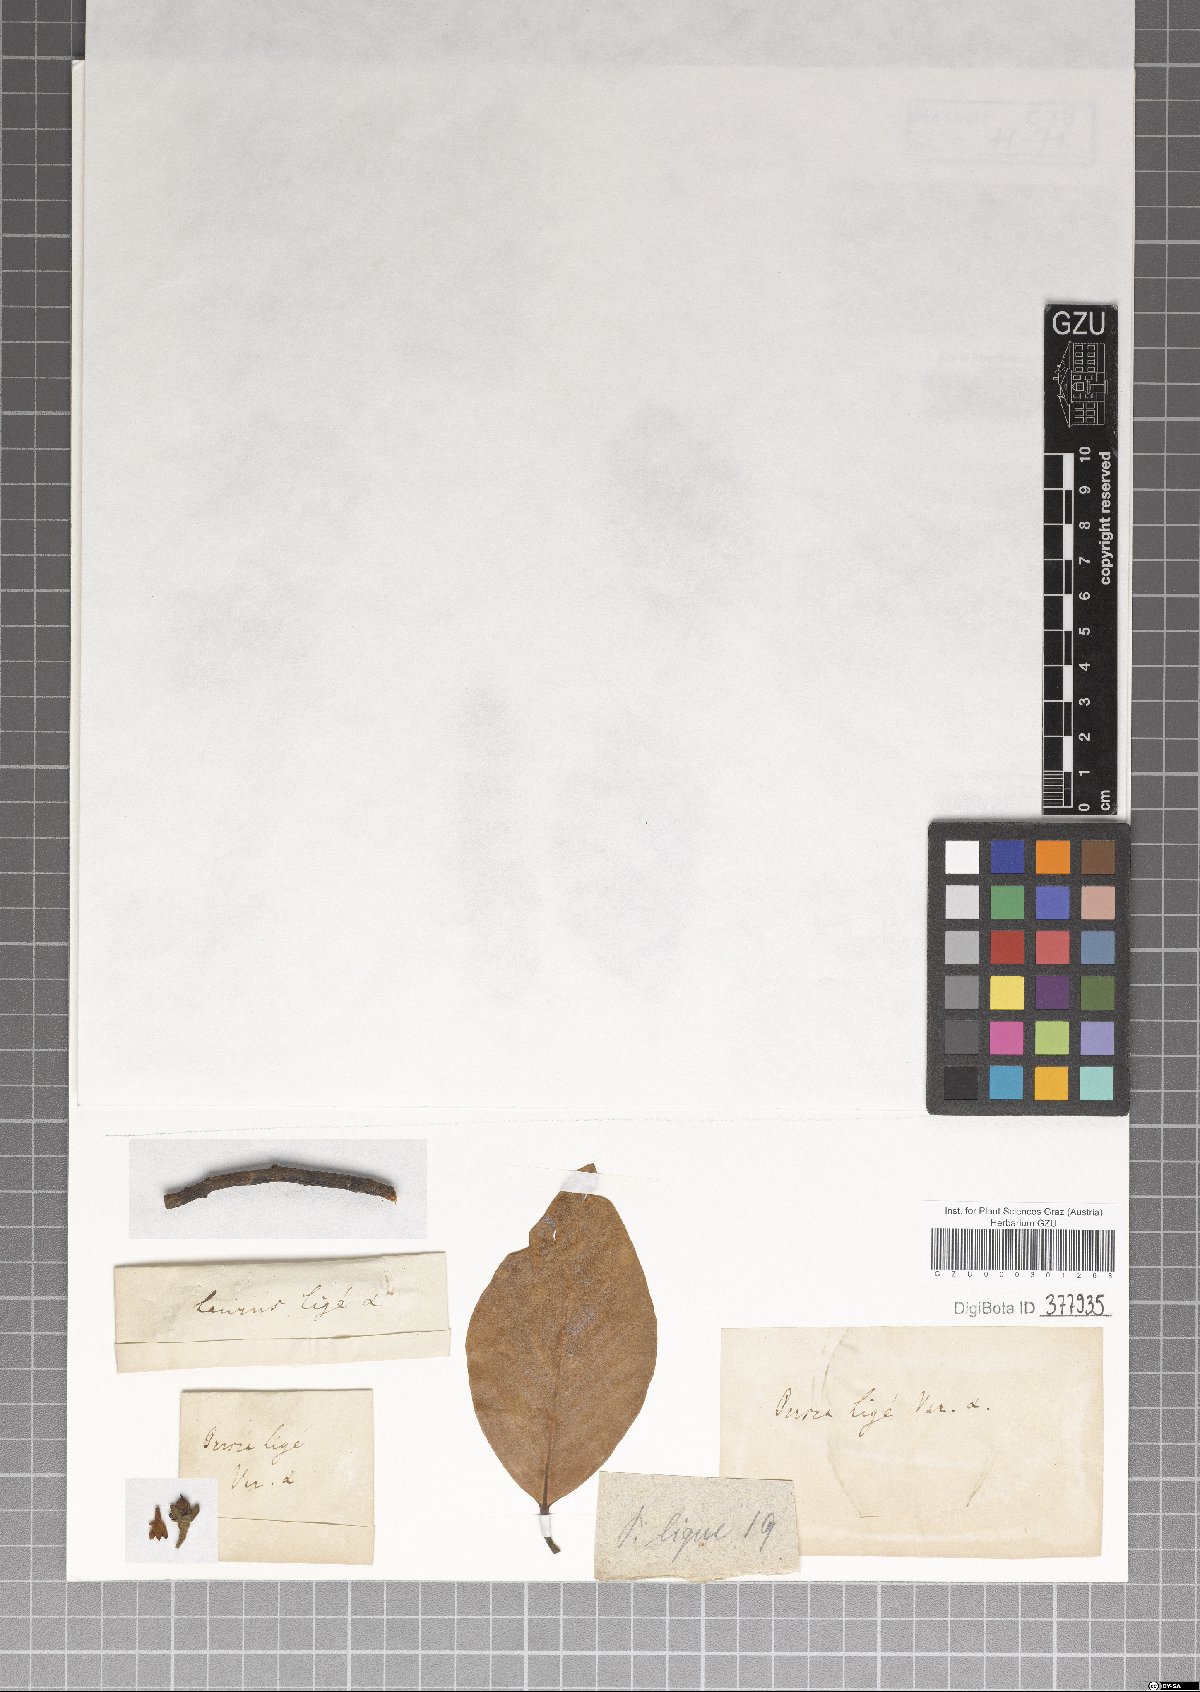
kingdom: Plantae
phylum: Tracheophyta
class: Magnoliopsida
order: Laurales
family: Lauraceae
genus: Persea
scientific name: Persea lingue
